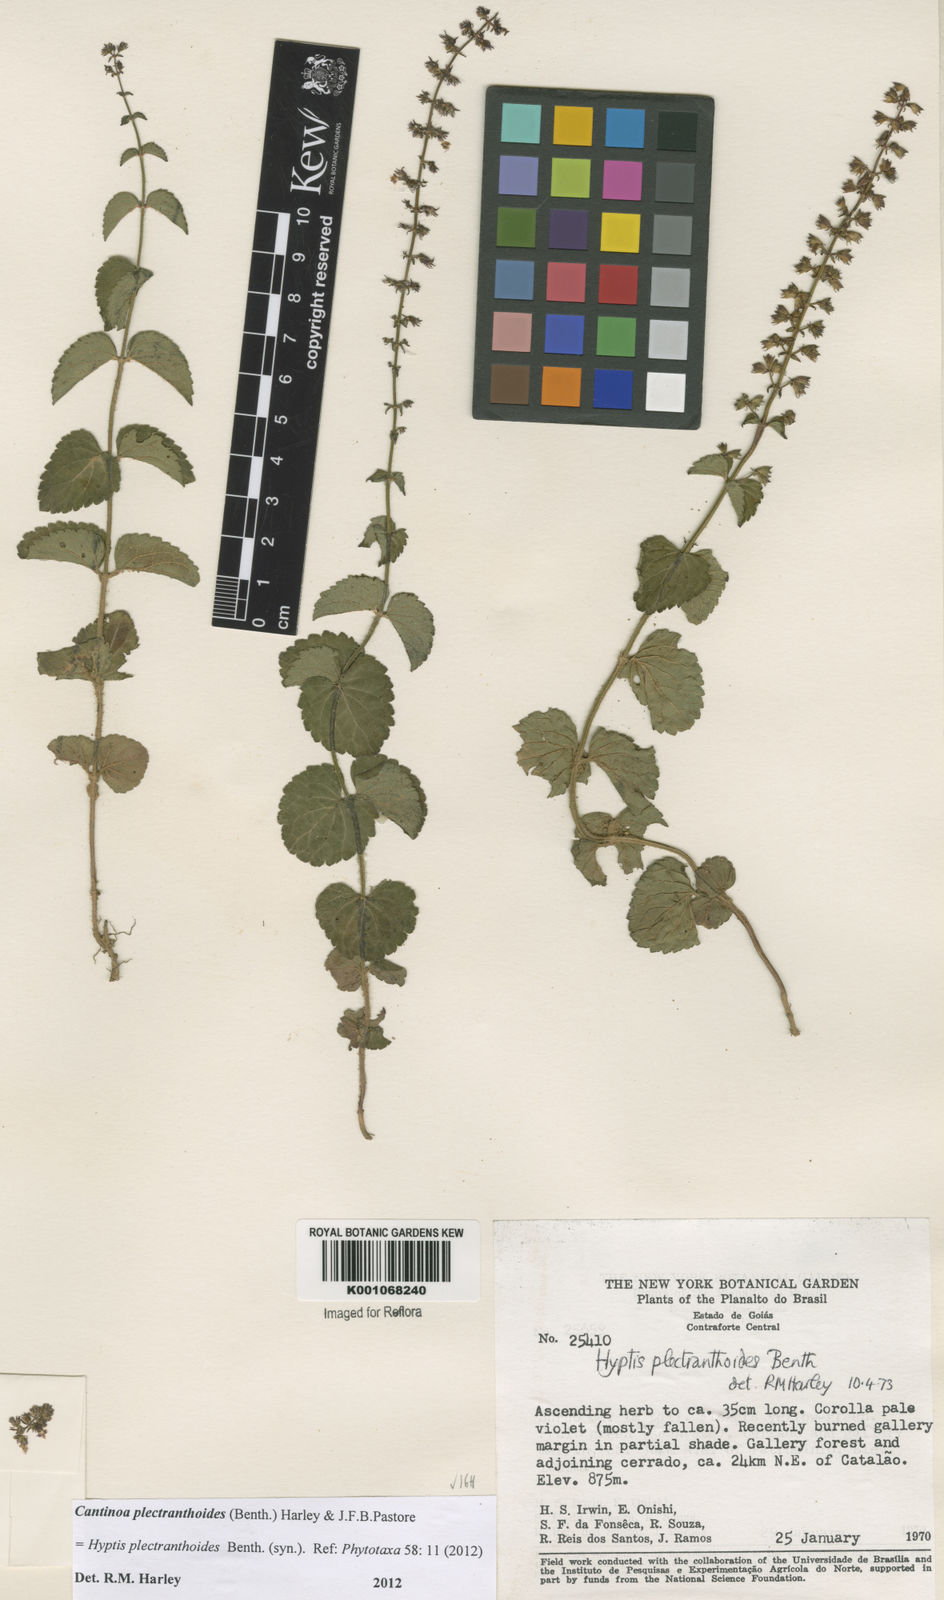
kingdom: Plantae
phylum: Tracheophyta
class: Magnoliopsida
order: Lamiales
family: Lamiaceae
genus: Cantinoa
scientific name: Cantinoa plectranthoides
